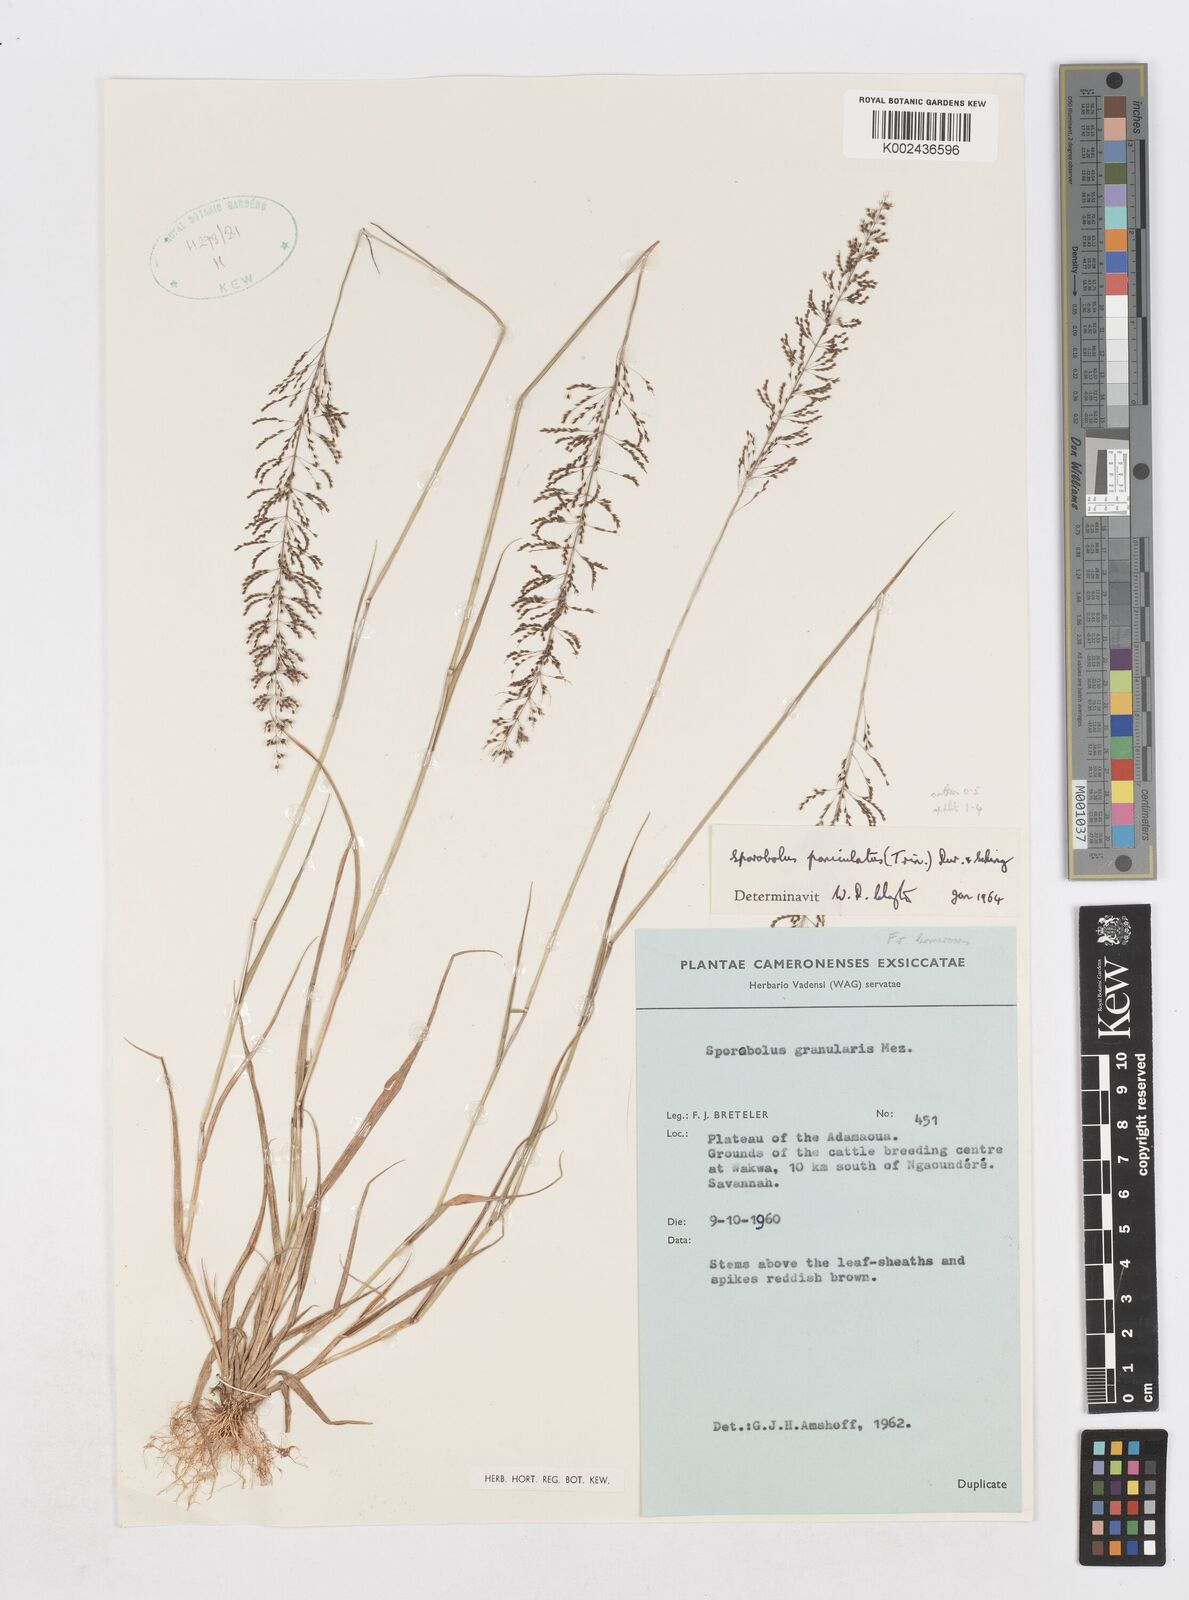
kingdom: Plantae
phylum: Tracheophyta
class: Liliopsida
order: Poales
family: Poaceae
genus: Sporobolus
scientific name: Sporobolus paniculatus
